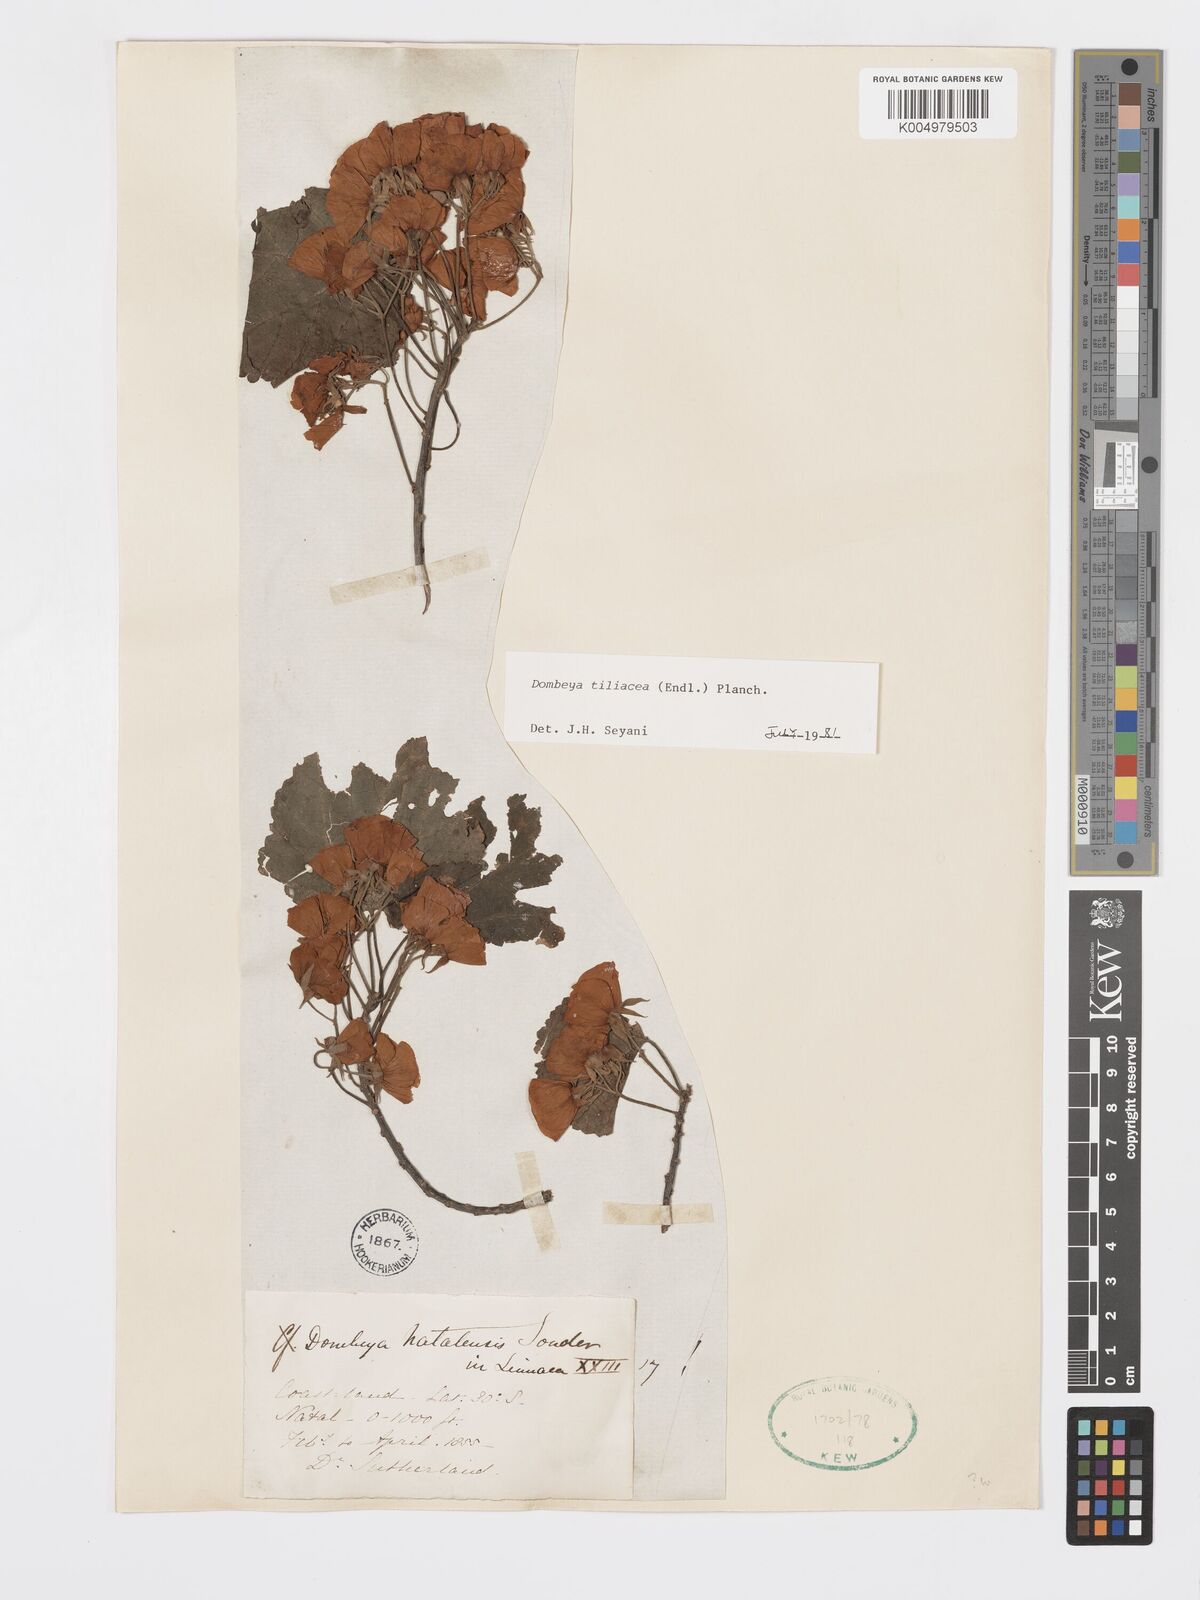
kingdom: Plantae
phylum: Tracheophyta
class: Magnoliopsida
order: Malvales
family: Malvaceae
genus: Dombeya
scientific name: Dombeya tiliacea
